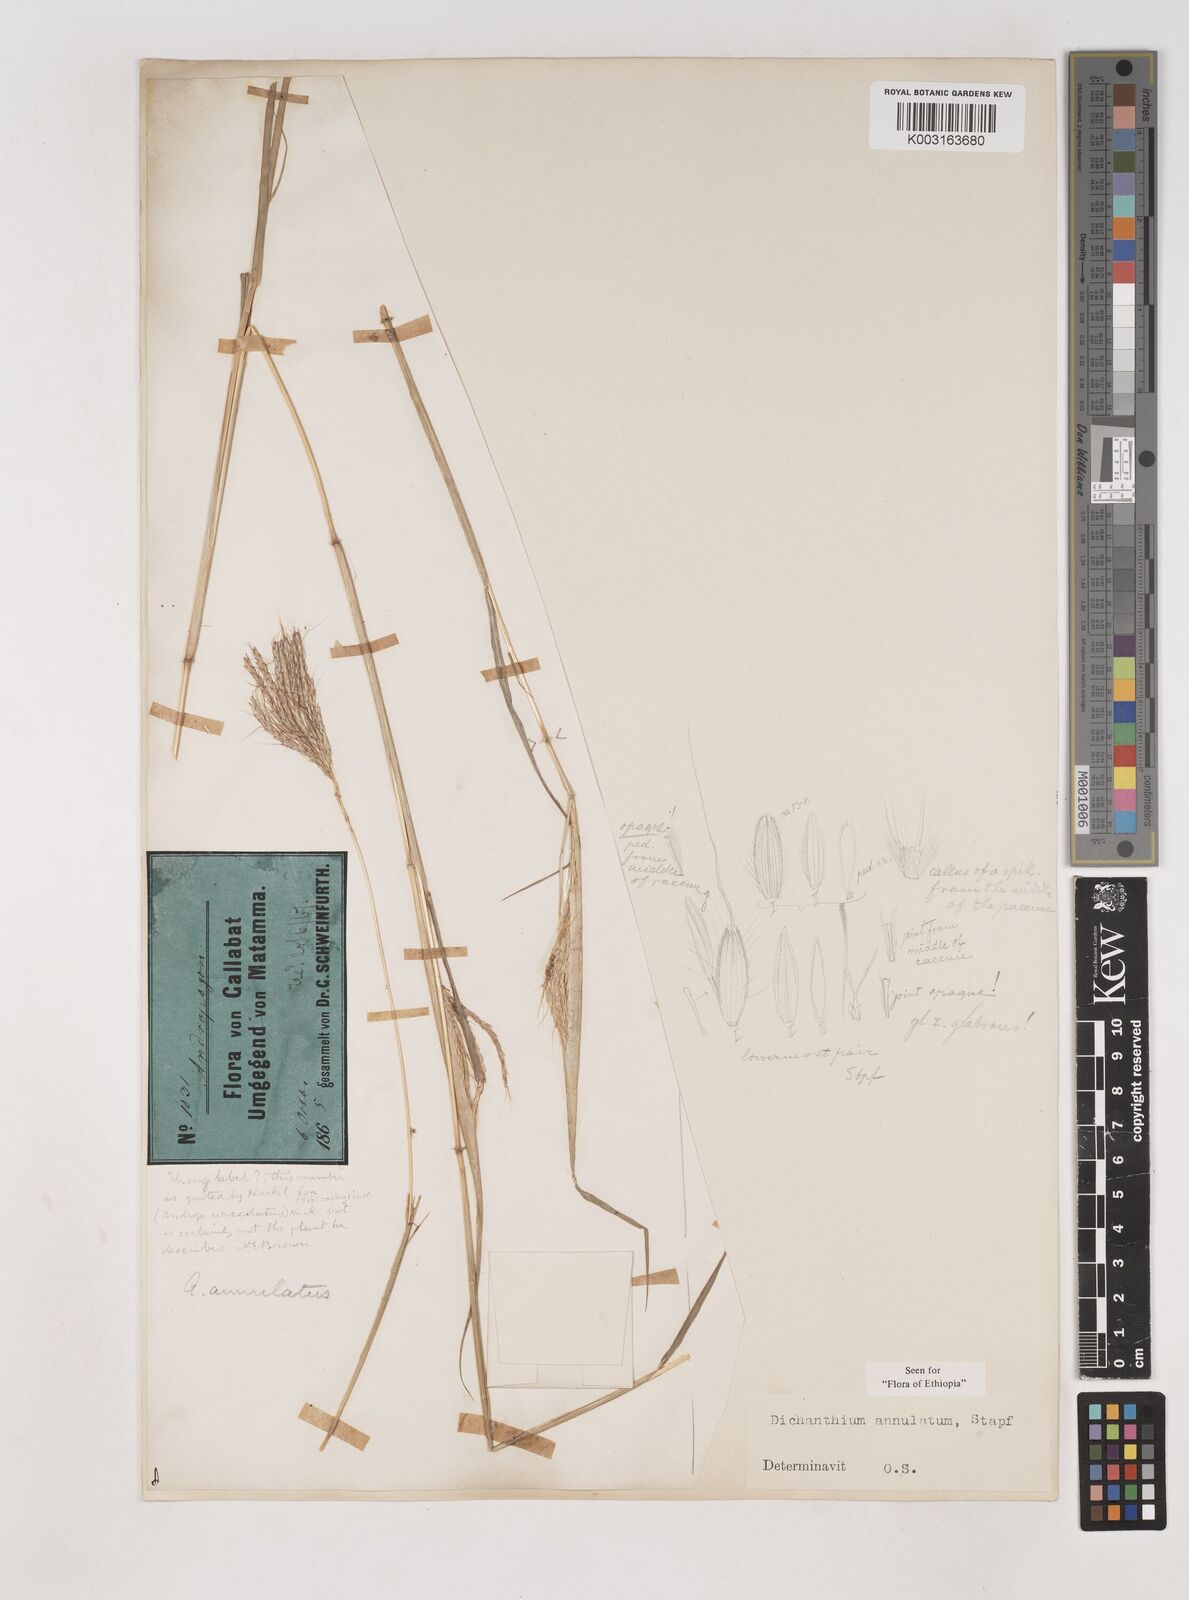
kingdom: Plantae
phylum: Tracheophyta
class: Liliopsida
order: Poales
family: Poaceae
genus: Dichanthium
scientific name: Dichanthium annulatum
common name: Kleberg's bluestem
